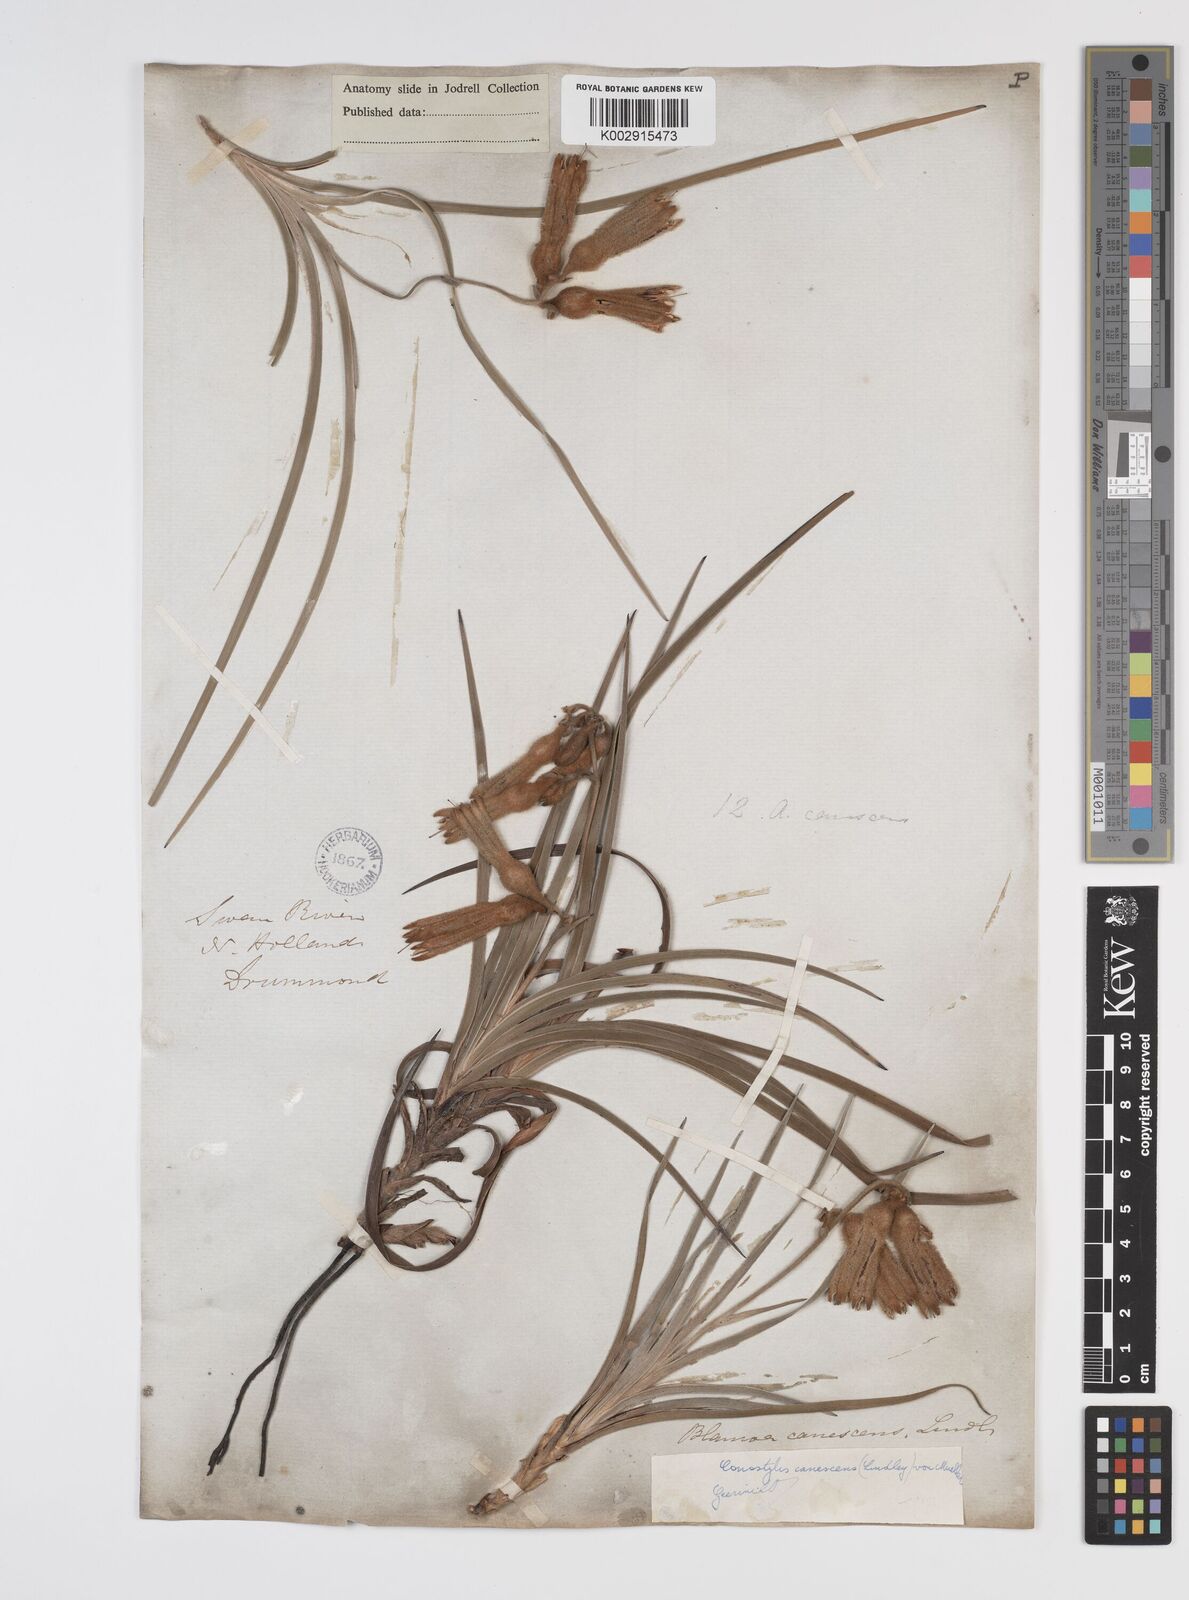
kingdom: Plantae
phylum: Tracheophyta
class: Liliopsida
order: Commelinales
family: Haemodoraceae
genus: Blancoa
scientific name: Blancoa canescens
